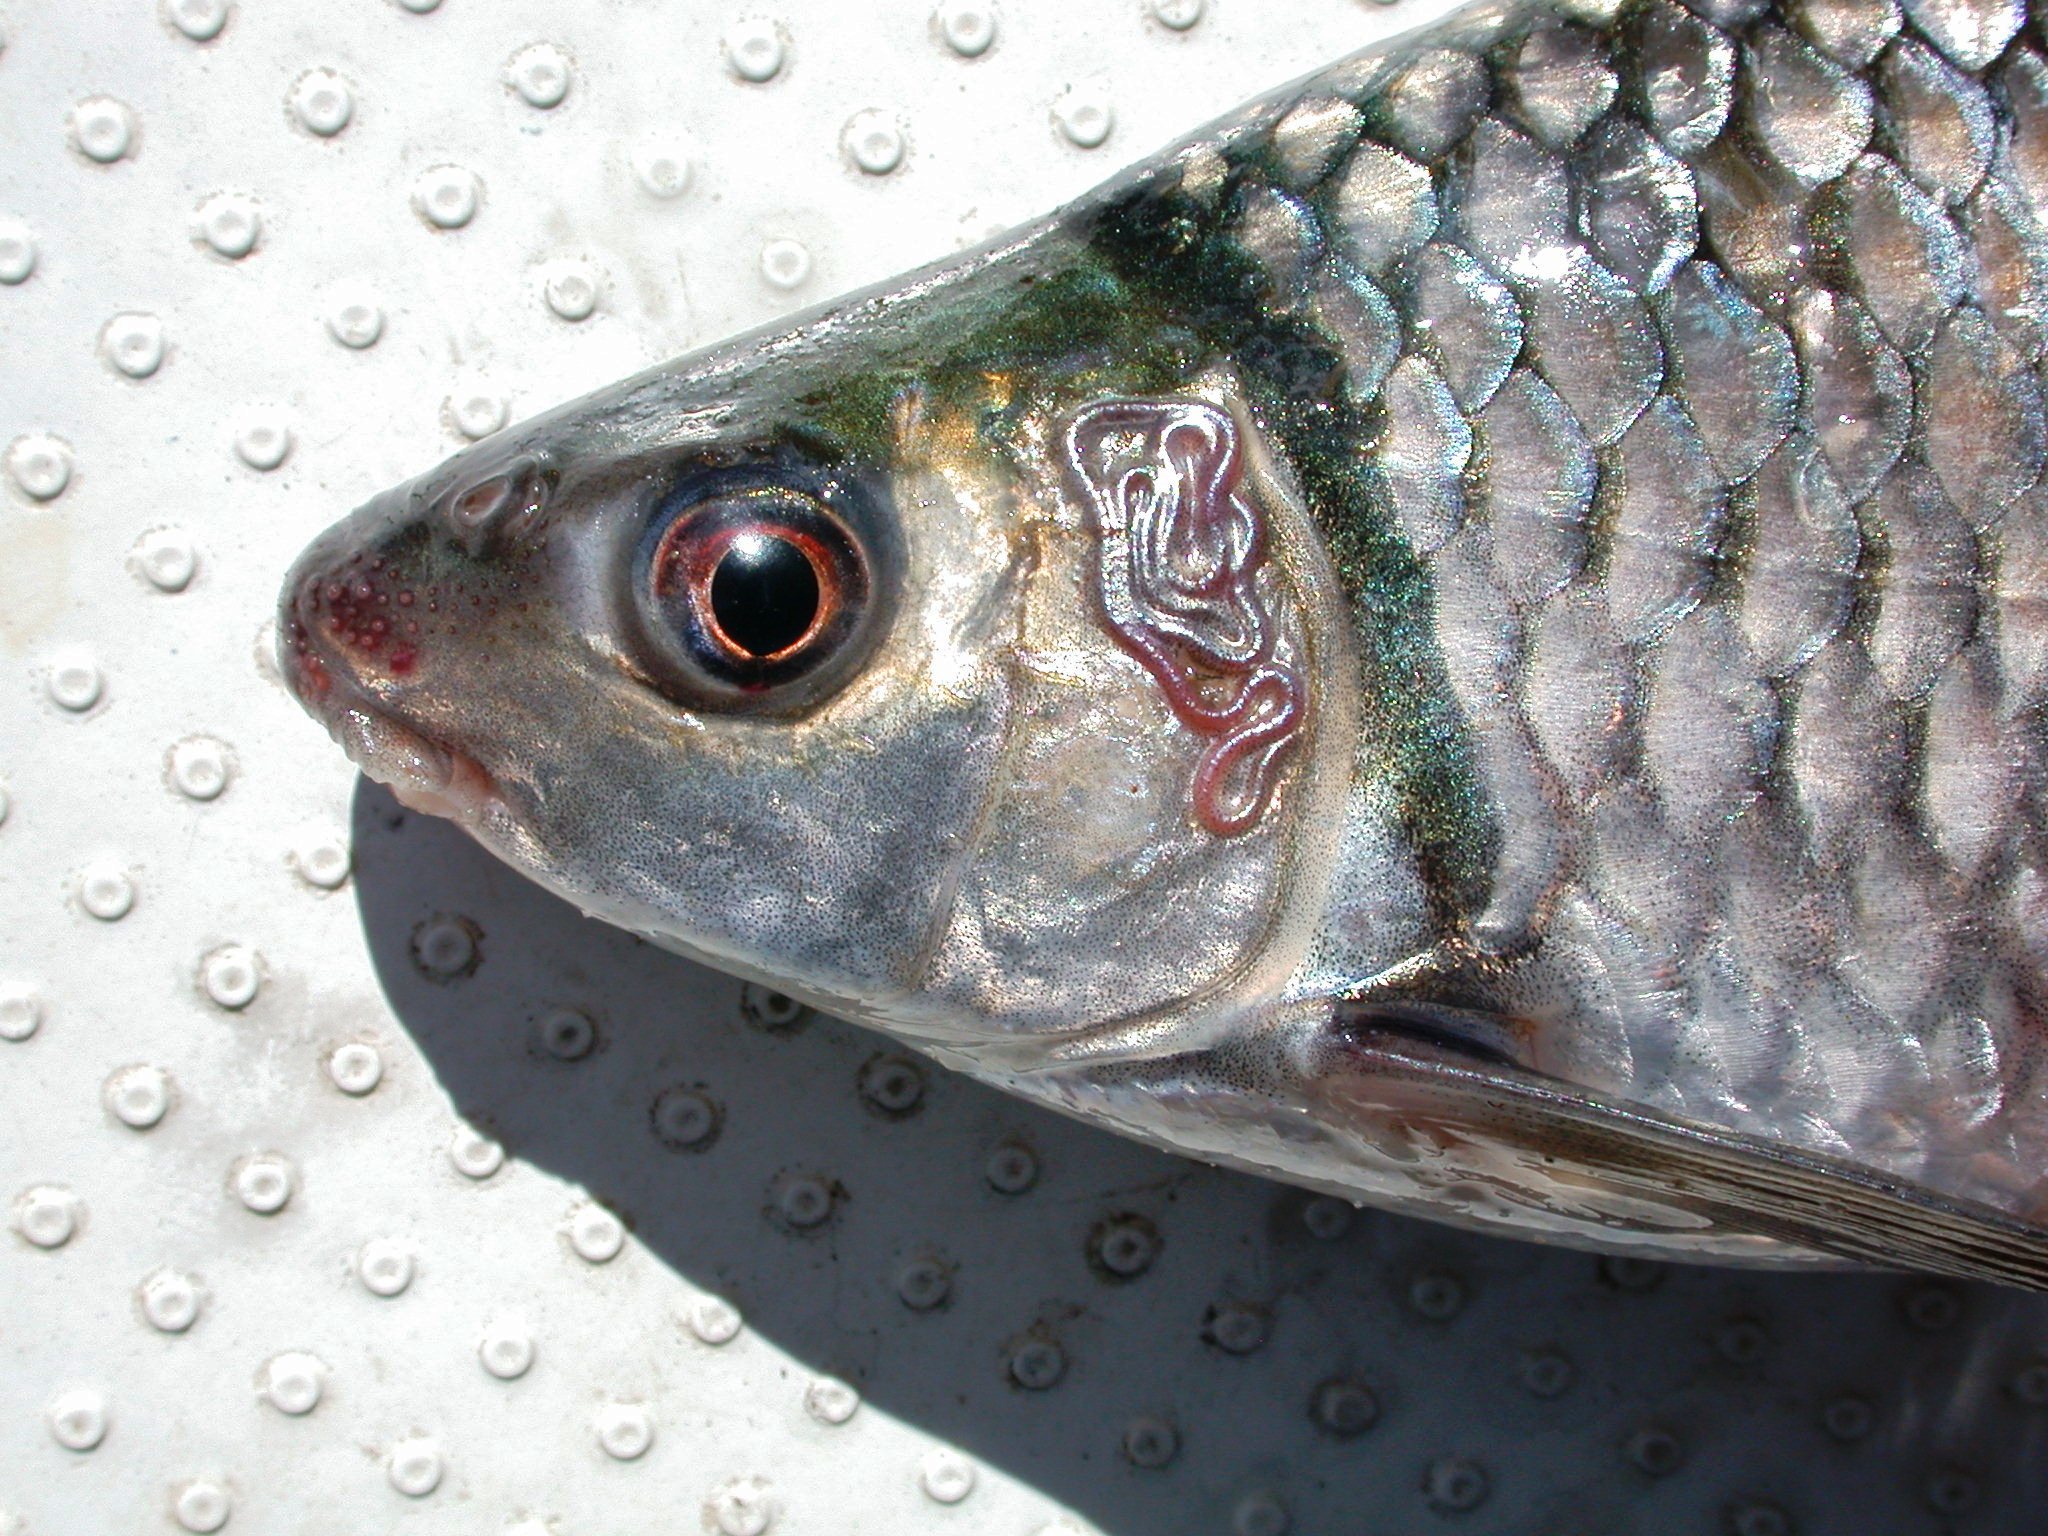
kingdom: Animalia
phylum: Chordata
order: Cypriniformes
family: Cyprinidae
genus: Labeo
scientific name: Labeo altivelis
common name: Hunyani labeo
